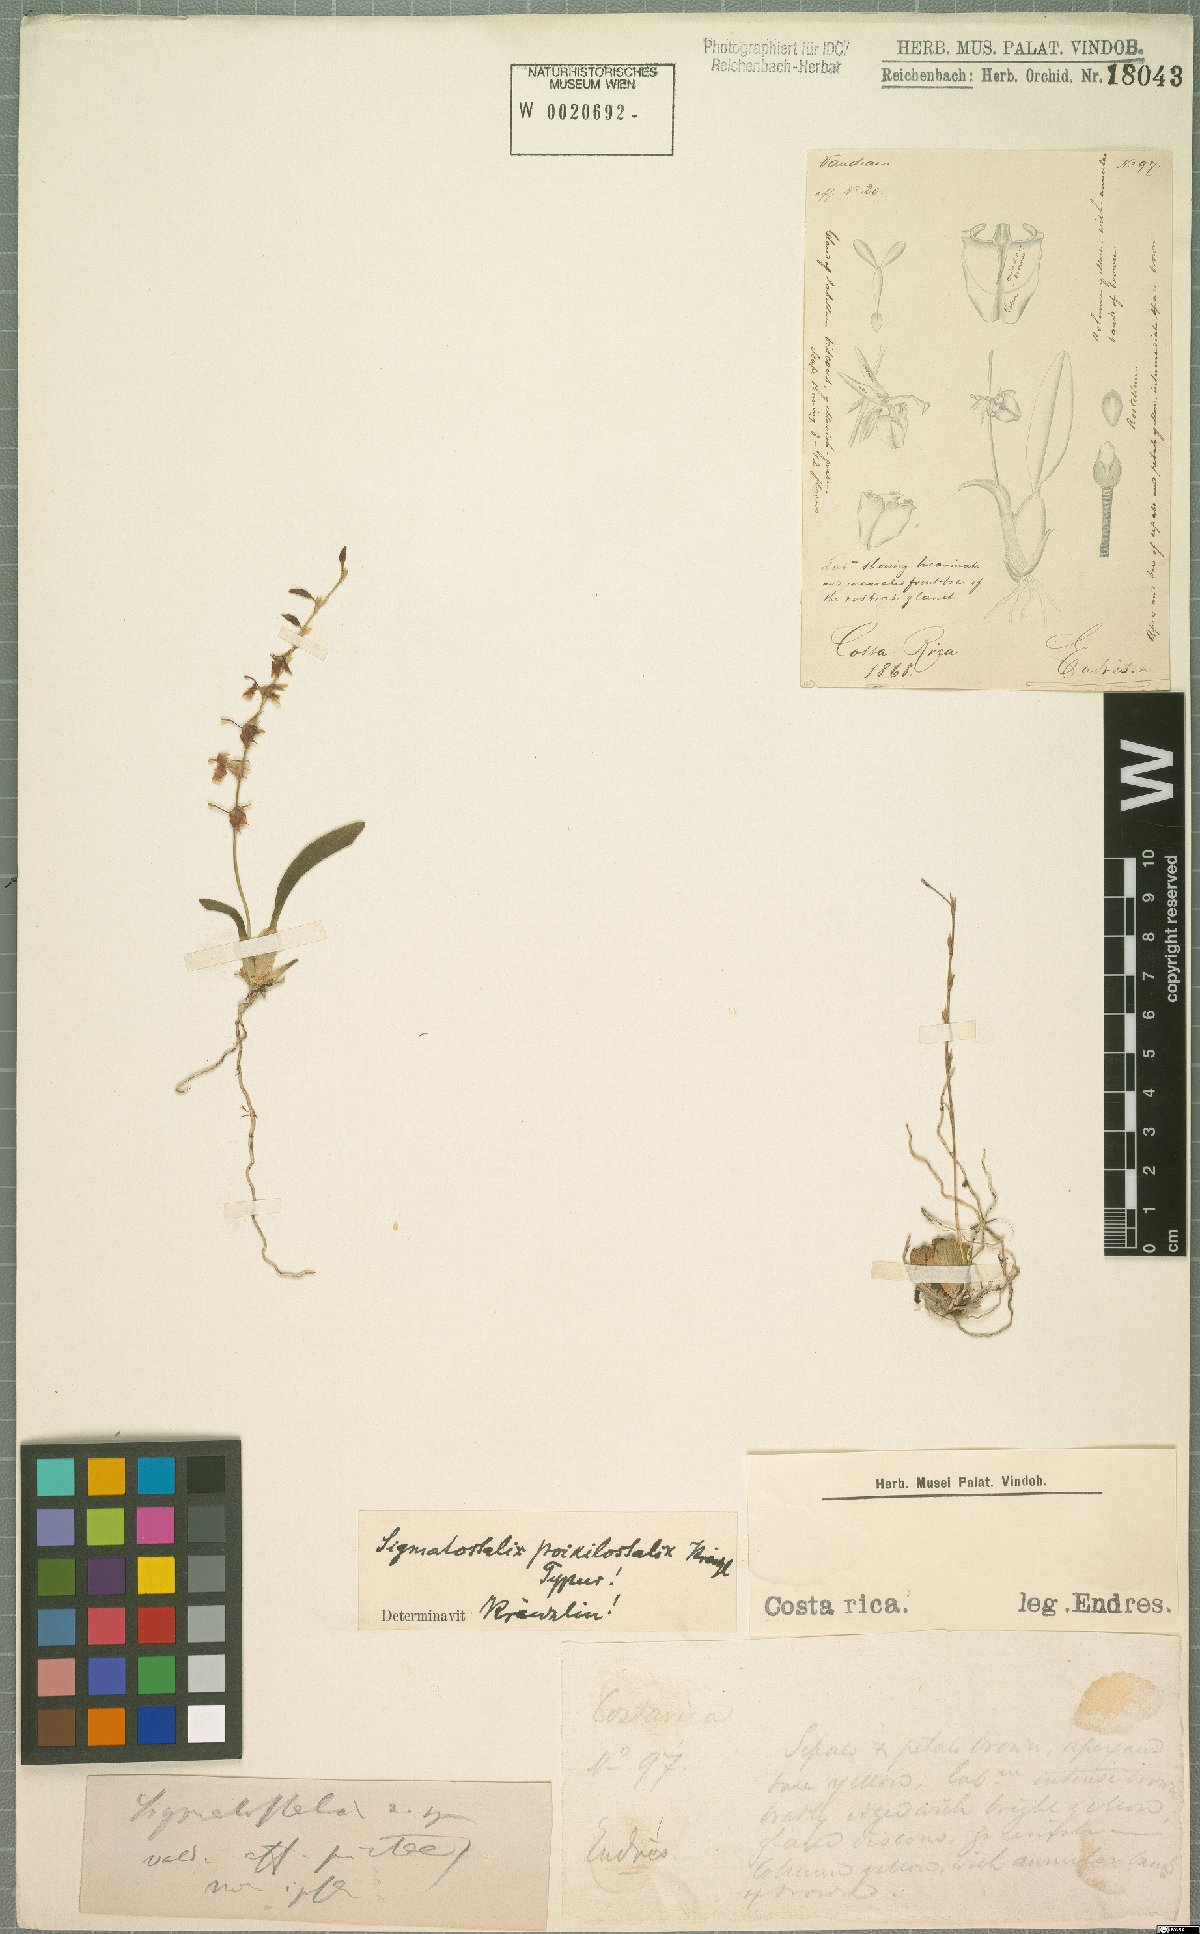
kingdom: Plantae
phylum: Tracheophyta
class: Liliopsida
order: Asparagales
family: Orchidaceae
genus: Oncidium
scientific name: Oncidium poikilostalix
